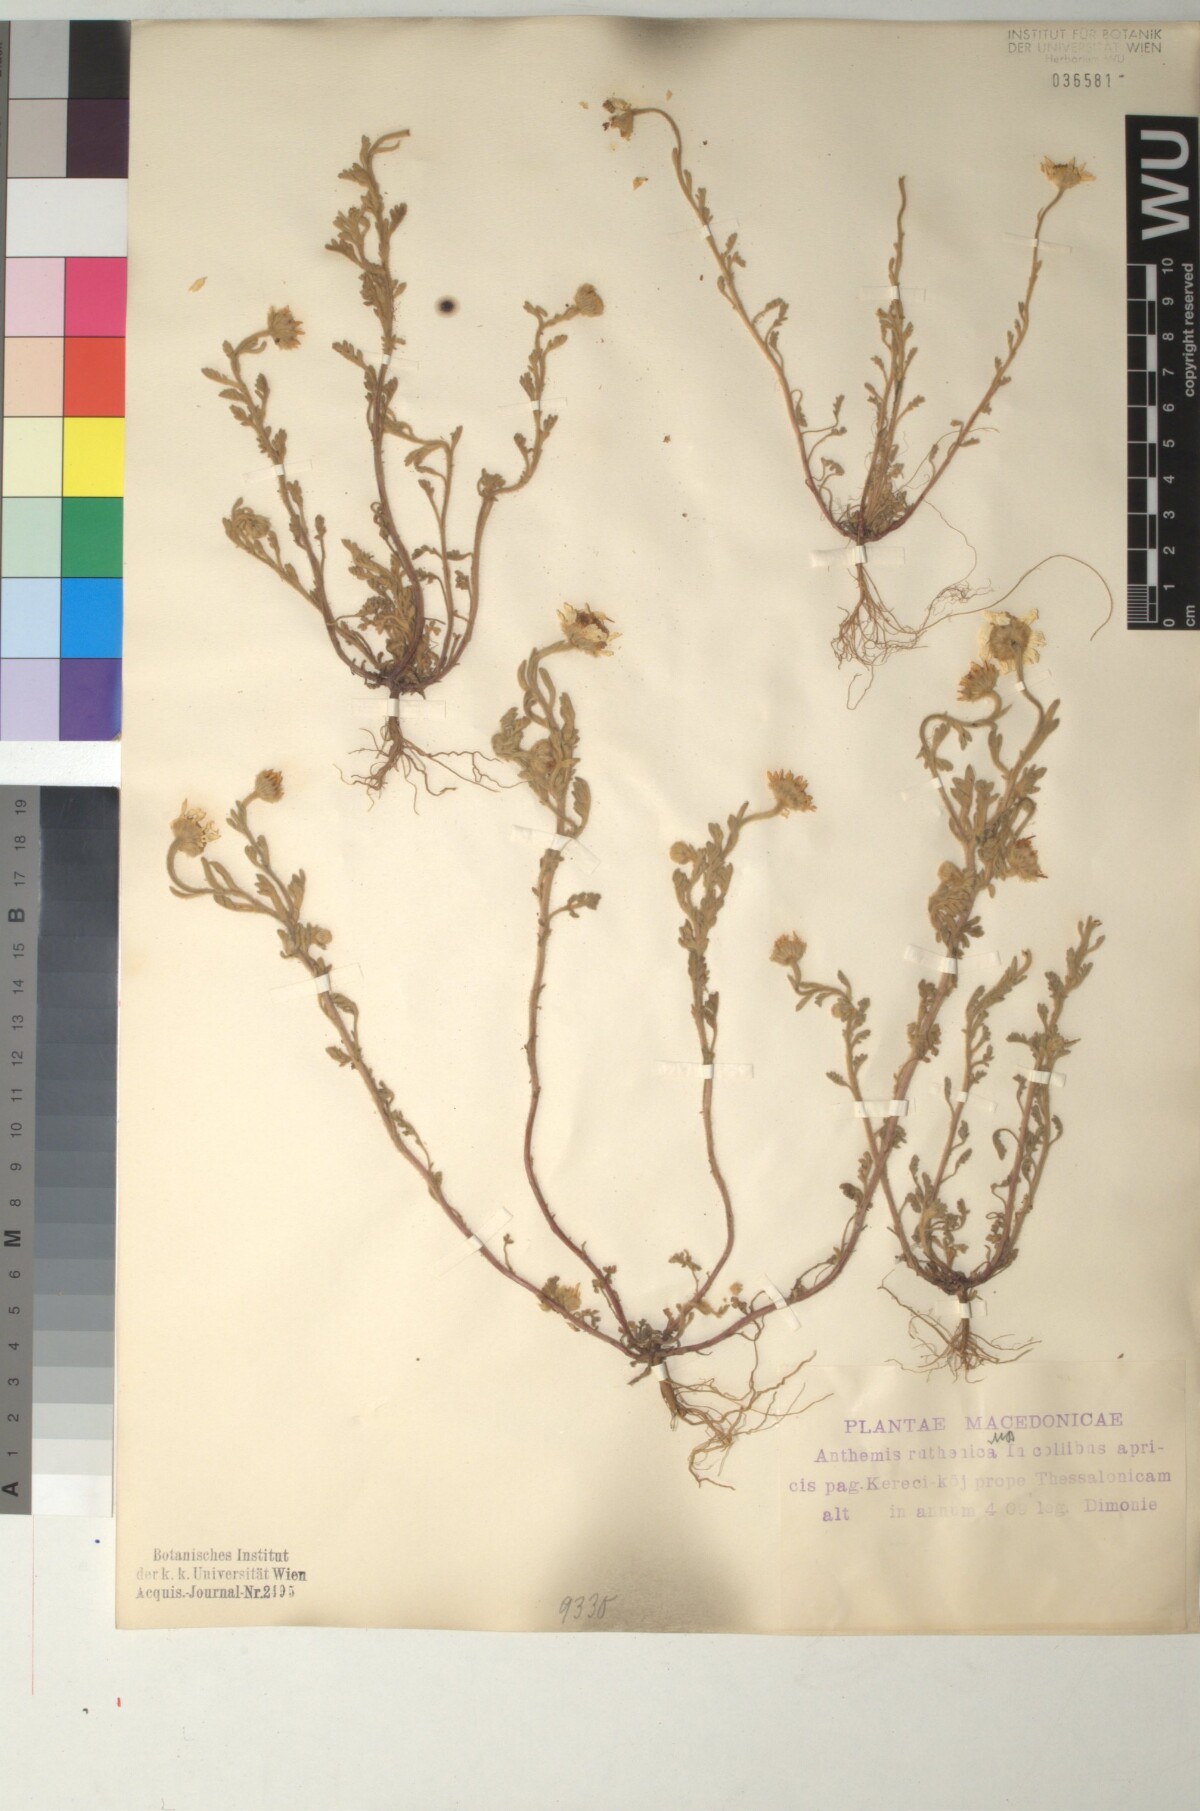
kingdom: Plantae
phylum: Tracheophyta
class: Magnoliopsida
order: Asterales
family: Asteraceae
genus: Anthemis
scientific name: Anthemis ruthenica
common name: Eastern chamomile
